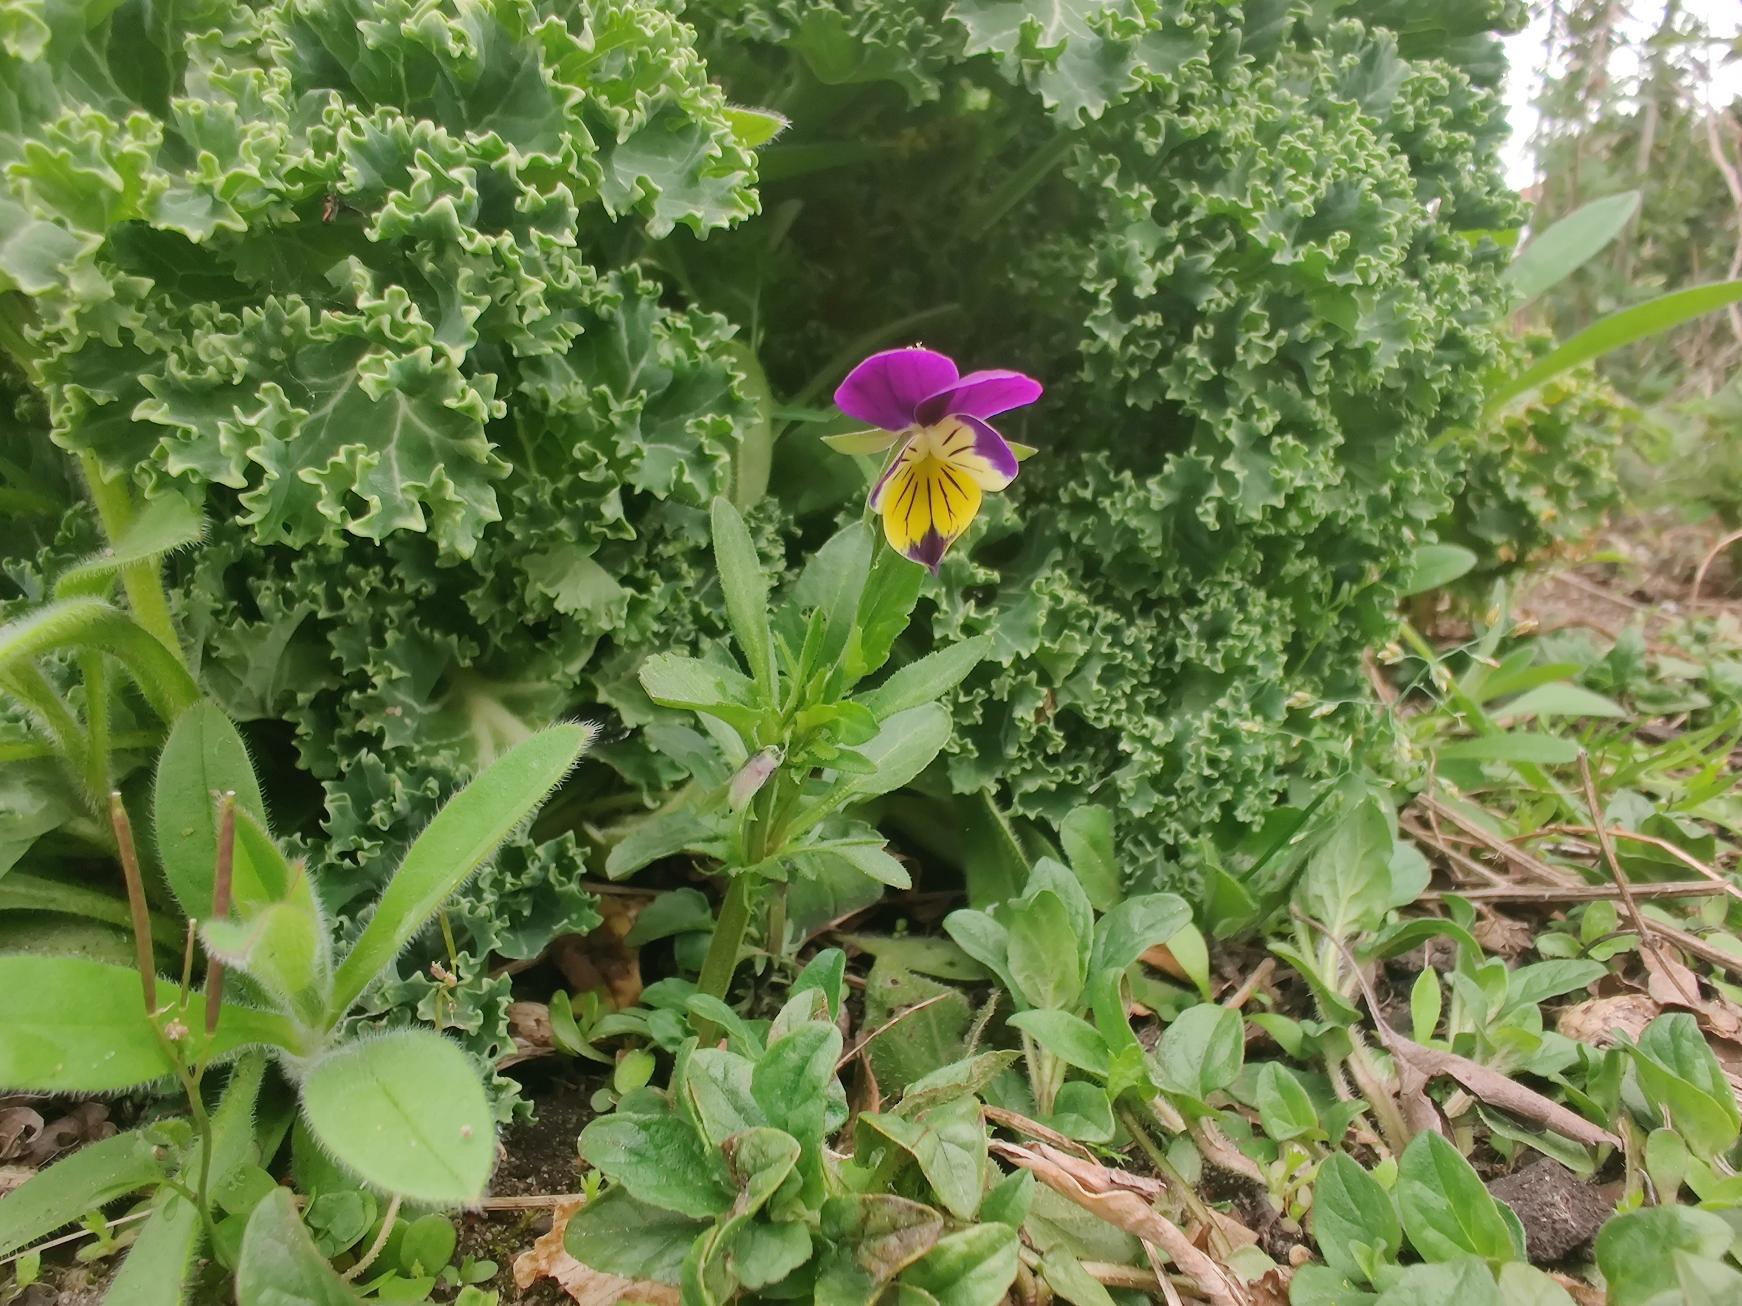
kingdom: Plantae
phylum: Tracheophyta
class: Magnoliopsida
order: Malpighiales
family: Violaceae
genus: Viola
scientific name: Viola tricolor
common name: Stedmoderblomst
